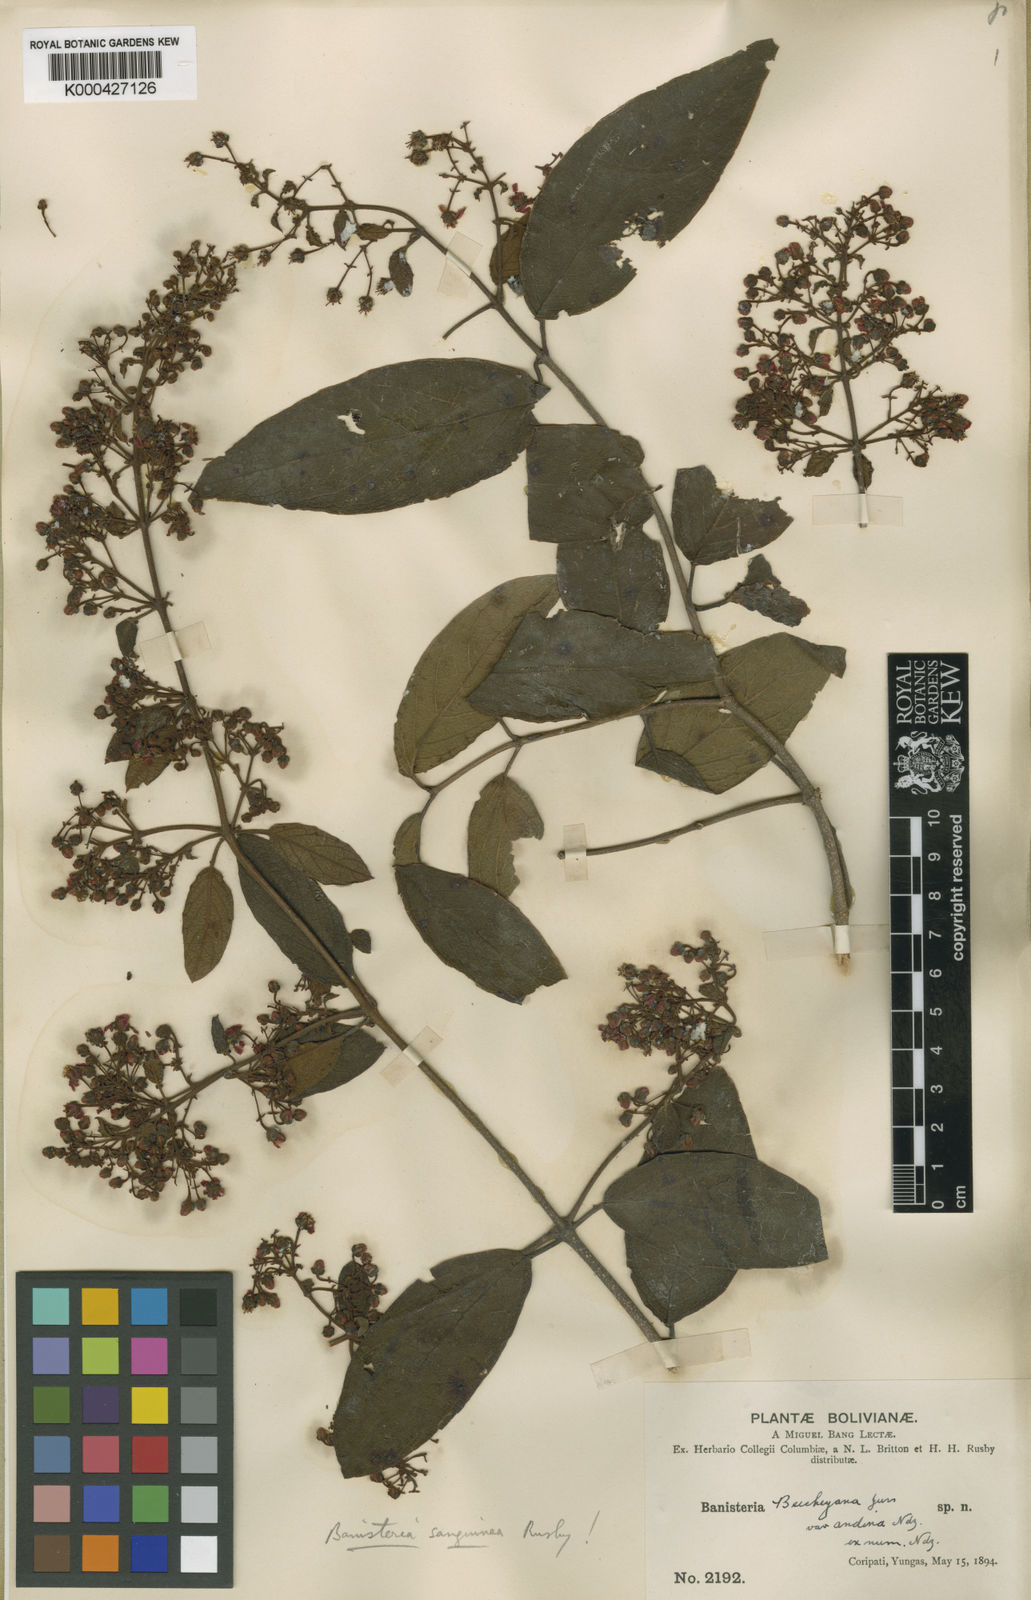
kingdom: Plantae
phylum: Tracheophyta
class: Magnoliopsida
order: Malpighiales
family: Malpighiaceae
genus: Heteropterys
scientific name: Heteropterys brachiata
